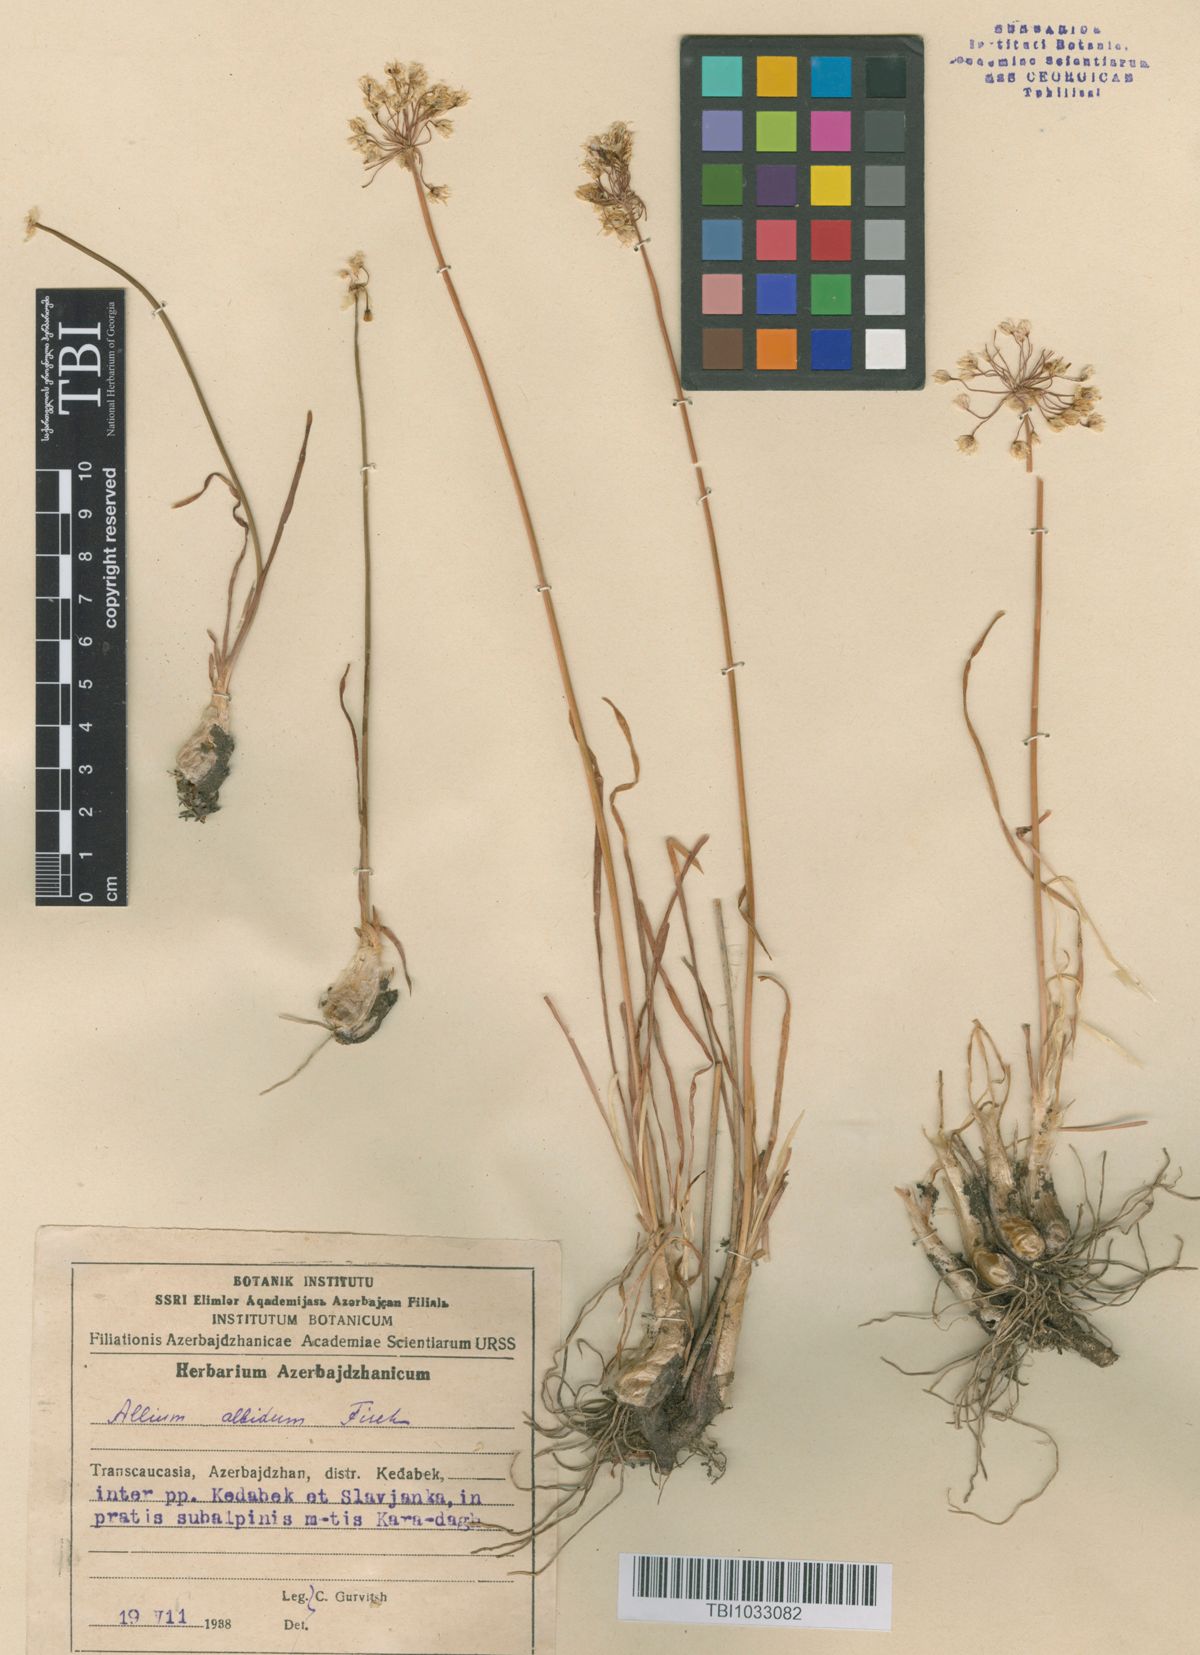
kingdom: Plantae
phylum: Tracheophyta
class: Liliopsida
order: Asparagales
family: Amaryllidaceae
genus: Allium
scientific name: Allium denudatum
